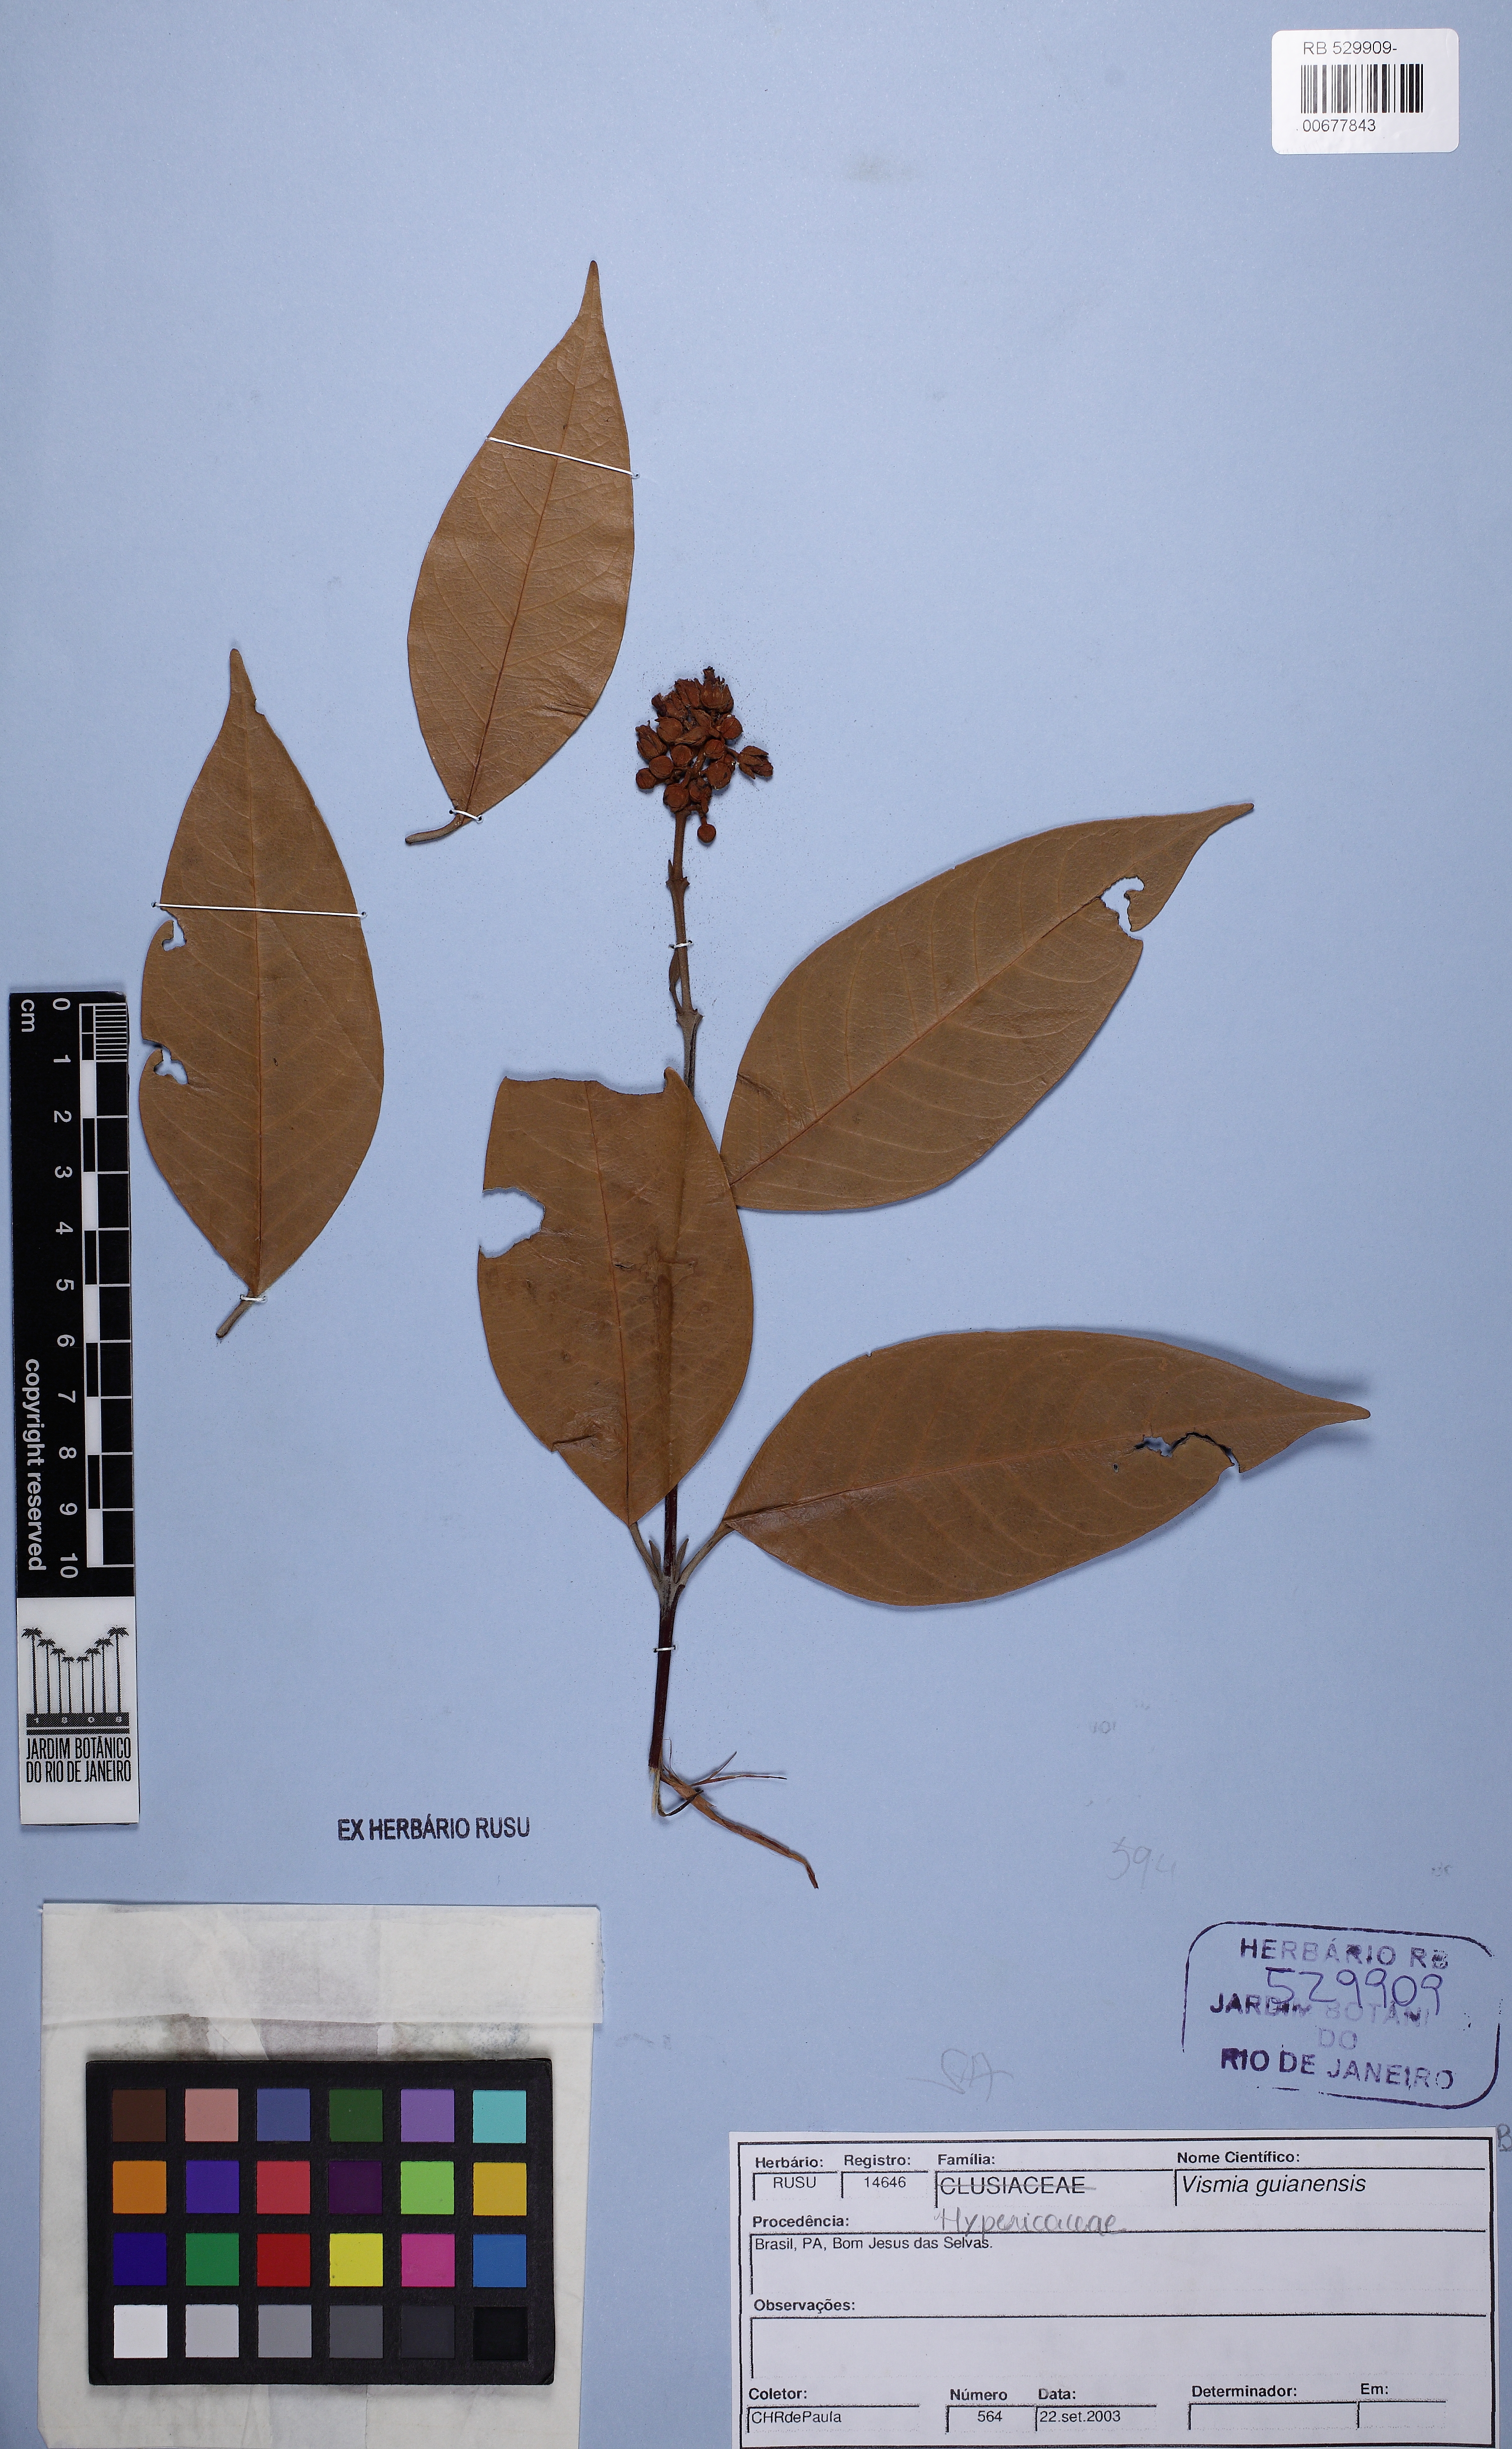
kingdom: Plantae
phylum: Tracheophyta
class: Magnoliopsida
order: Malpighiales
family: Hypericaceae
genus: Vismia
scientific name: Vismia guianensis
